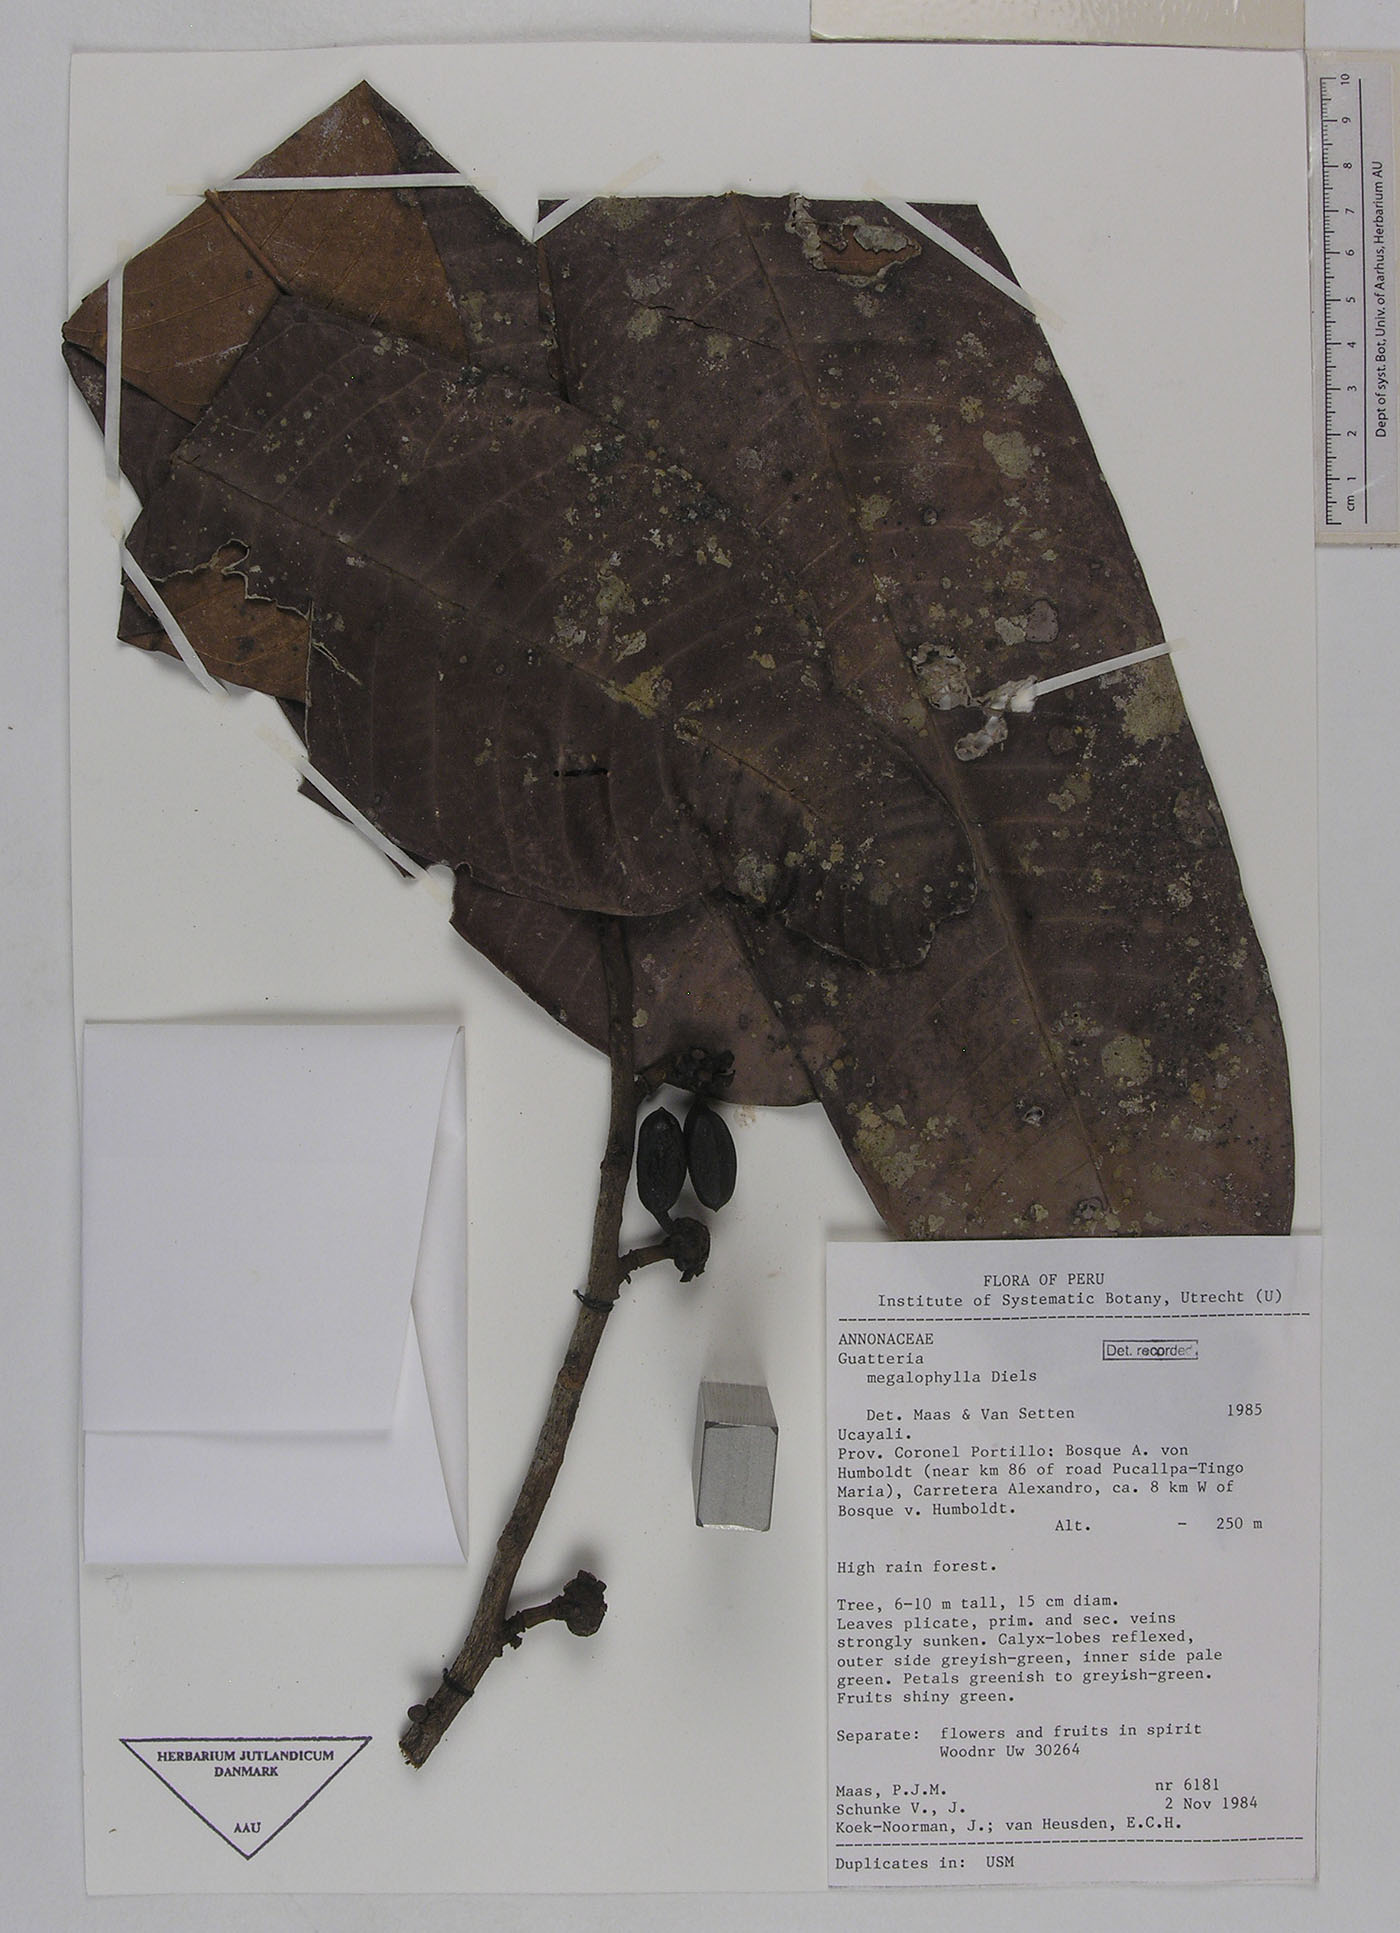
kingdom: Plantae
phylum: Tracheophyta
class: Magnoliopsida
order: Magnoliales
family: Annonaceae
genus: Guatteria
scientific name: Guatteria megalophylla
